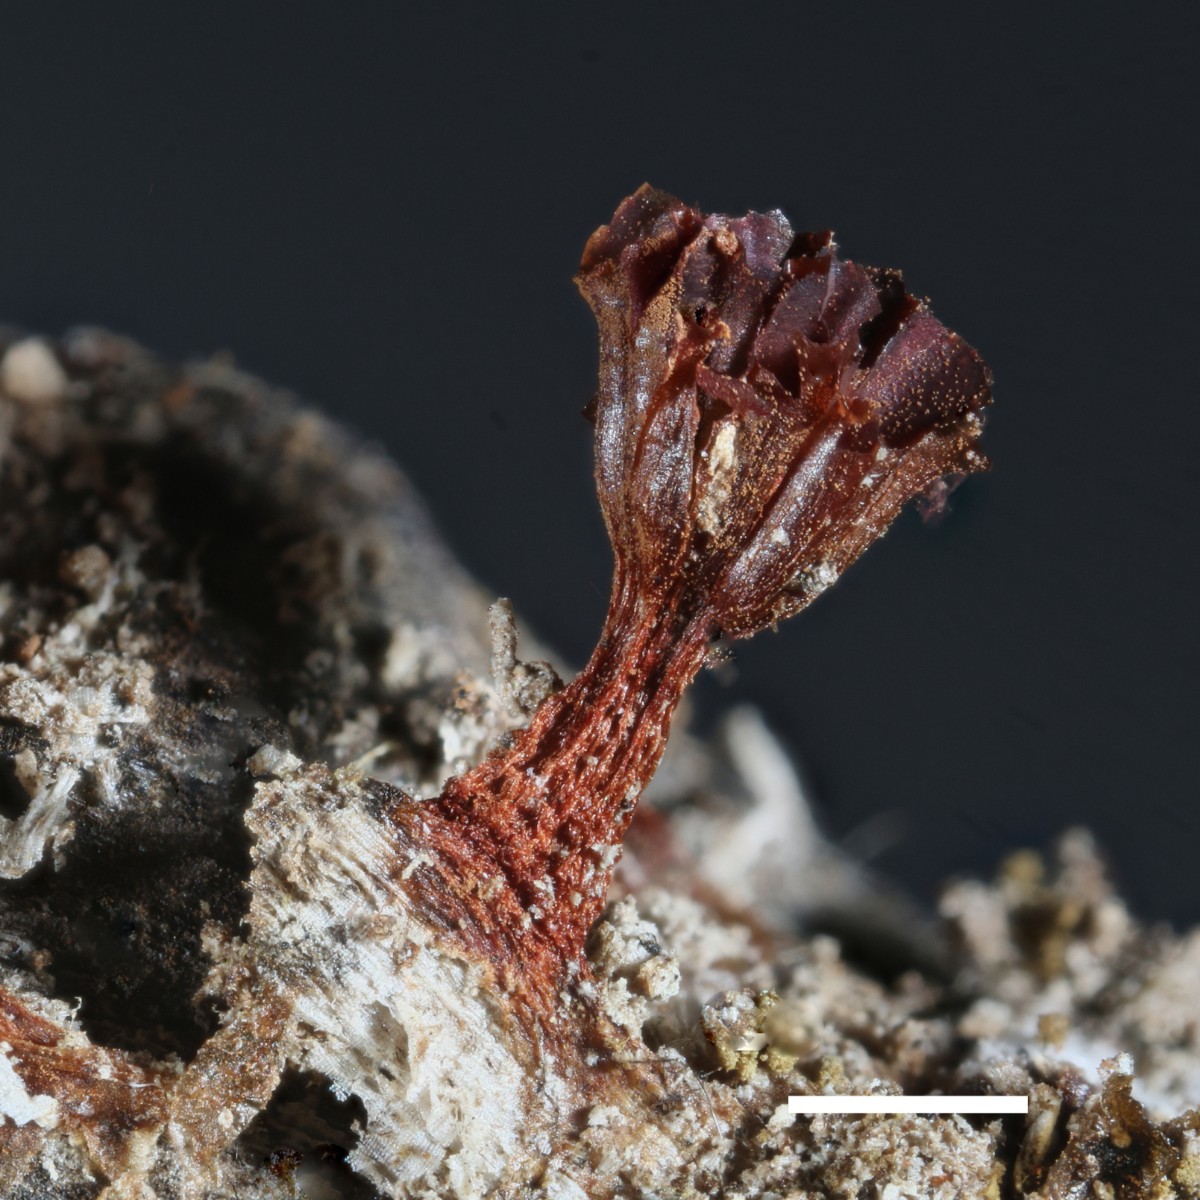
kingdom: Protozoa
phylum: Mycetozoa
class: Myxomycetes
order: Trichiales
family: Trichiaceae
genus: Metatrichia
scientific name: Metatrichia vesparia
